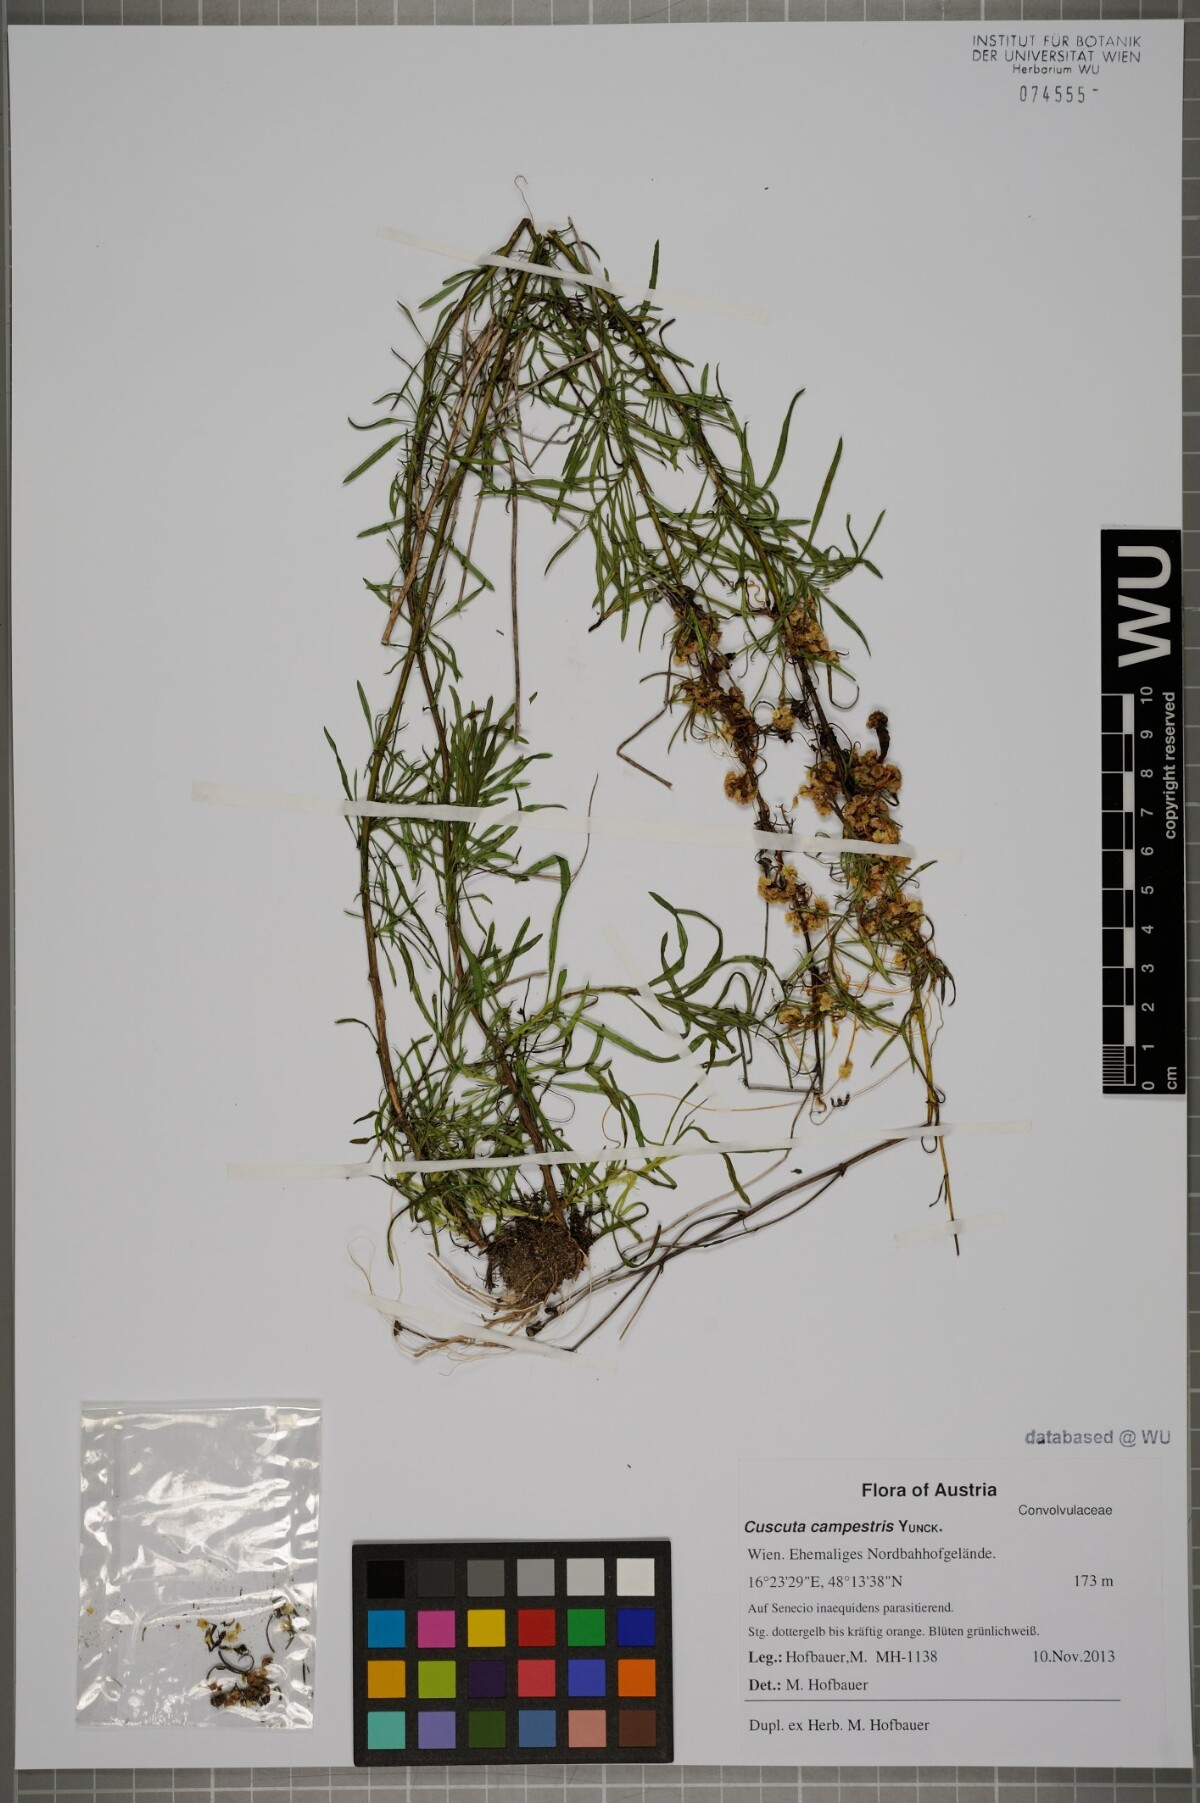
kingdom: Plantae
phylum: Tracheophyta
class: Magnoliopsida
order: Solanales
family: Convolvulaceae
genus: Cuscuta
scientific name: Cuscuta campestris
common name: Yellow dodder
